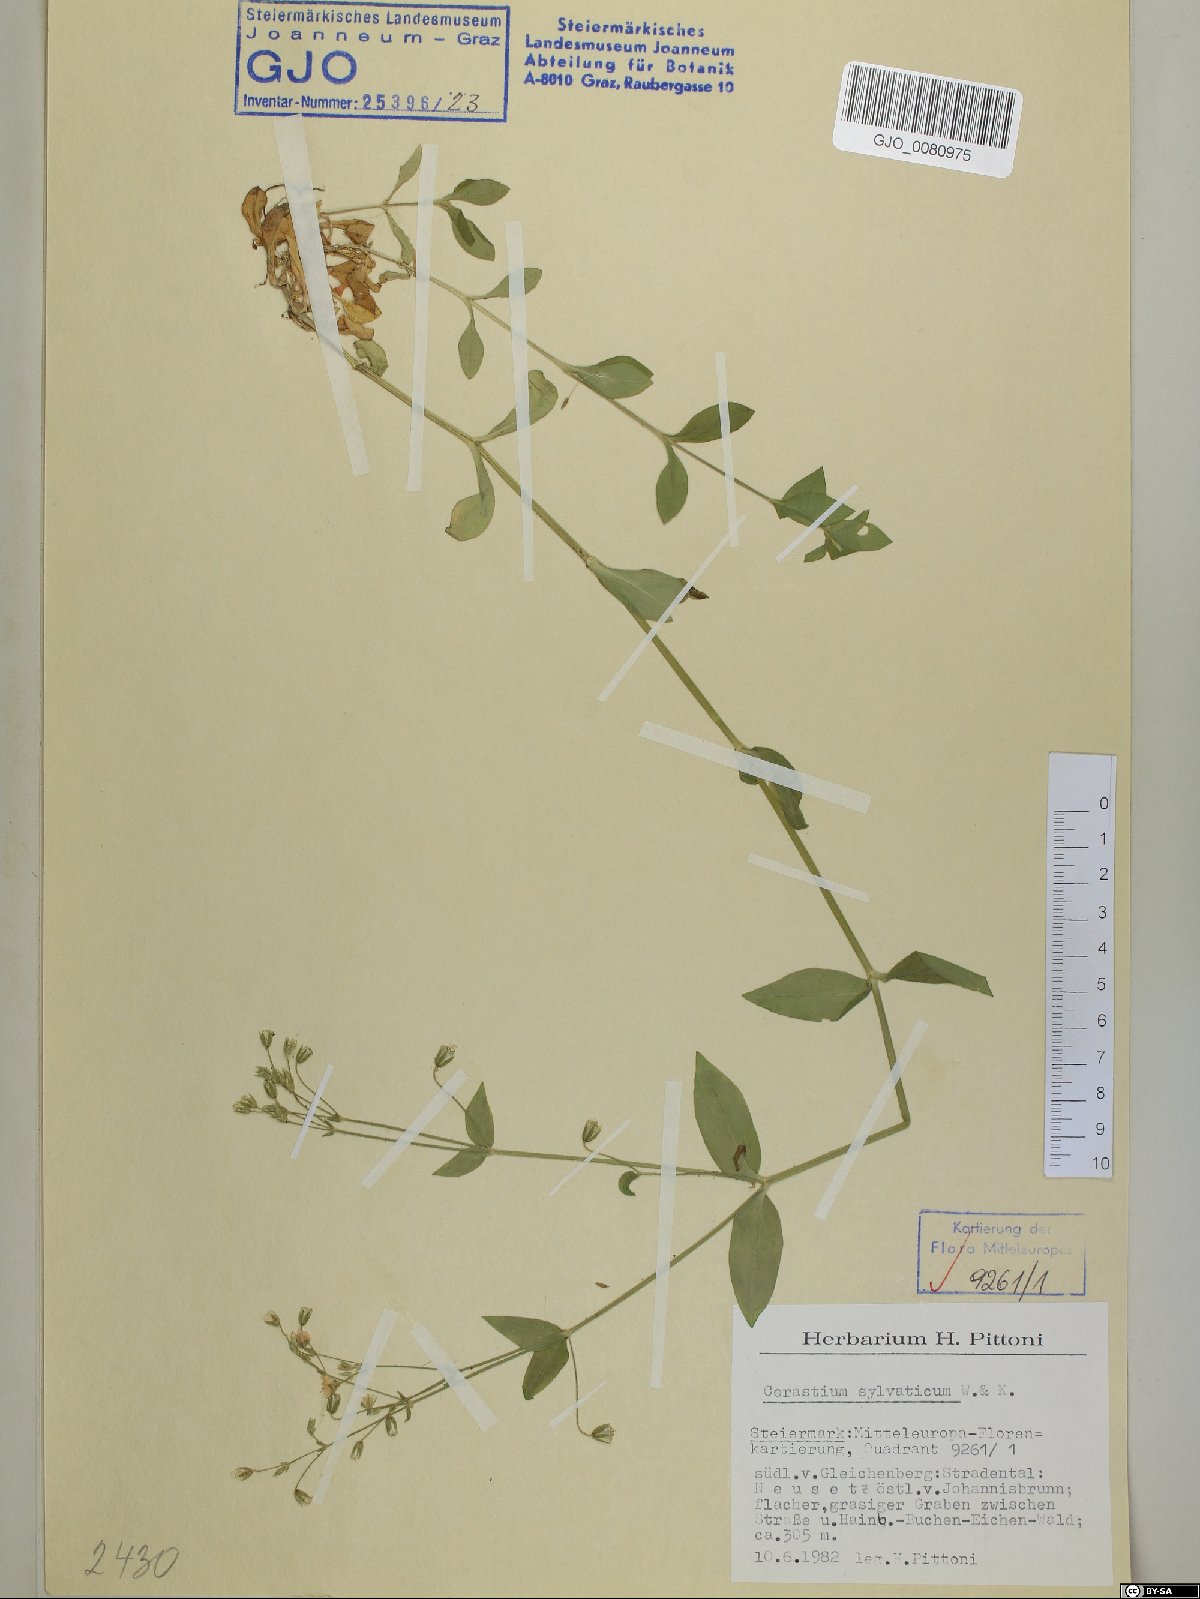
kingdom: Plantae
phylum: Tracheophyta
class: Magnoliopsida
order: Caryophyllales
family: Caryophyllaceae
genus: Cerastium
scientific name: Cerastium sylvaticum
